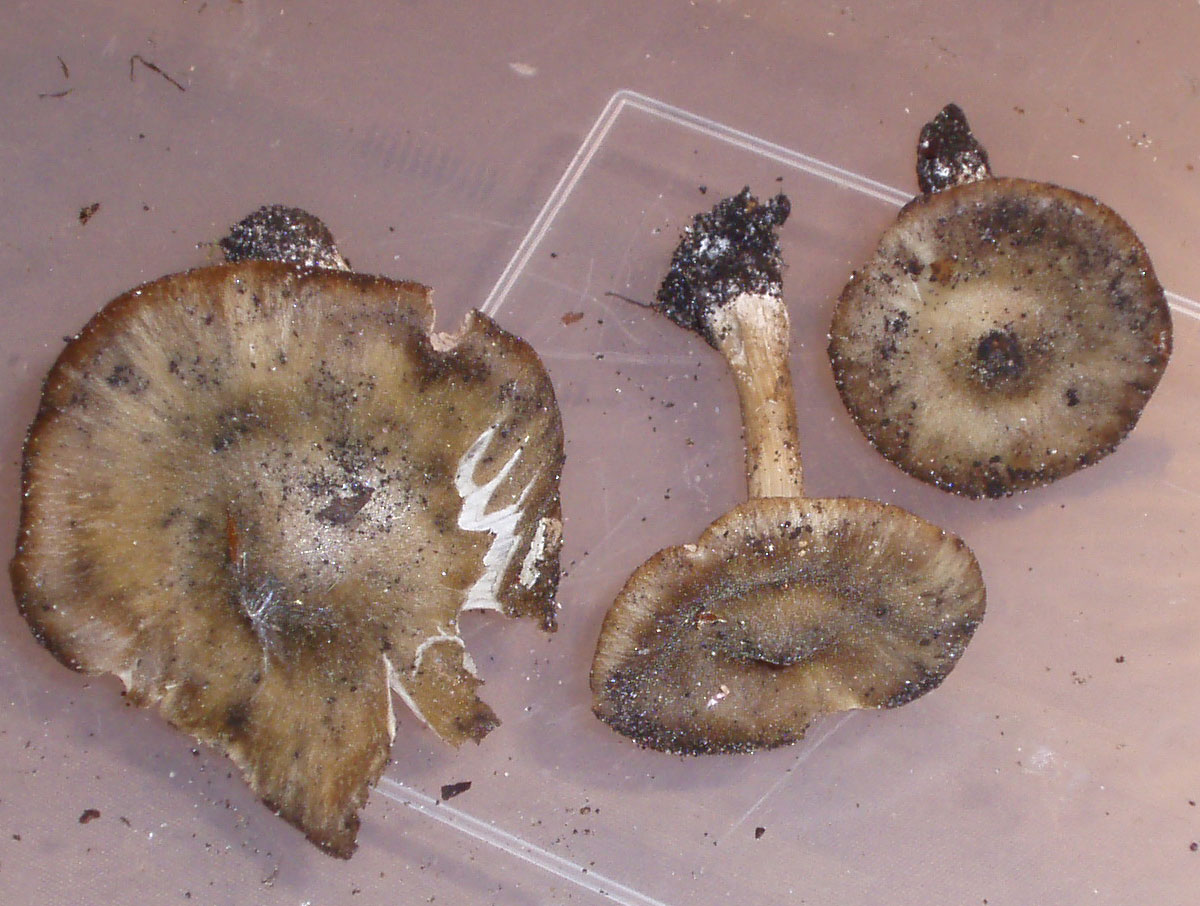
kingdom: Fungi
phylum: Basidiomycota
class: Agaricomycetes
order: Agaricales
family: Entolomataceae
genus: Entoloma
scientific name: Entoloma clypeatum
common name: flammet rødblad
